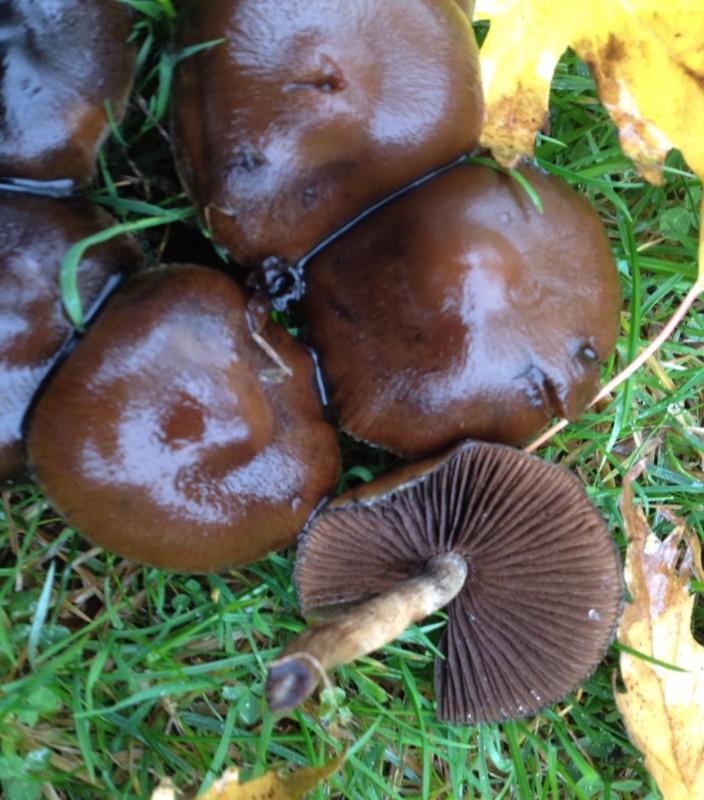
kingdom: Fungi
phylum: Basidiomycota
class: Agaricomycetes
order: Agaricales
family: Psathyrellaceae
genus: Lacrymaria
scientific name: Lacrymaria lacrymabunda
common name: grædende mørkhat
